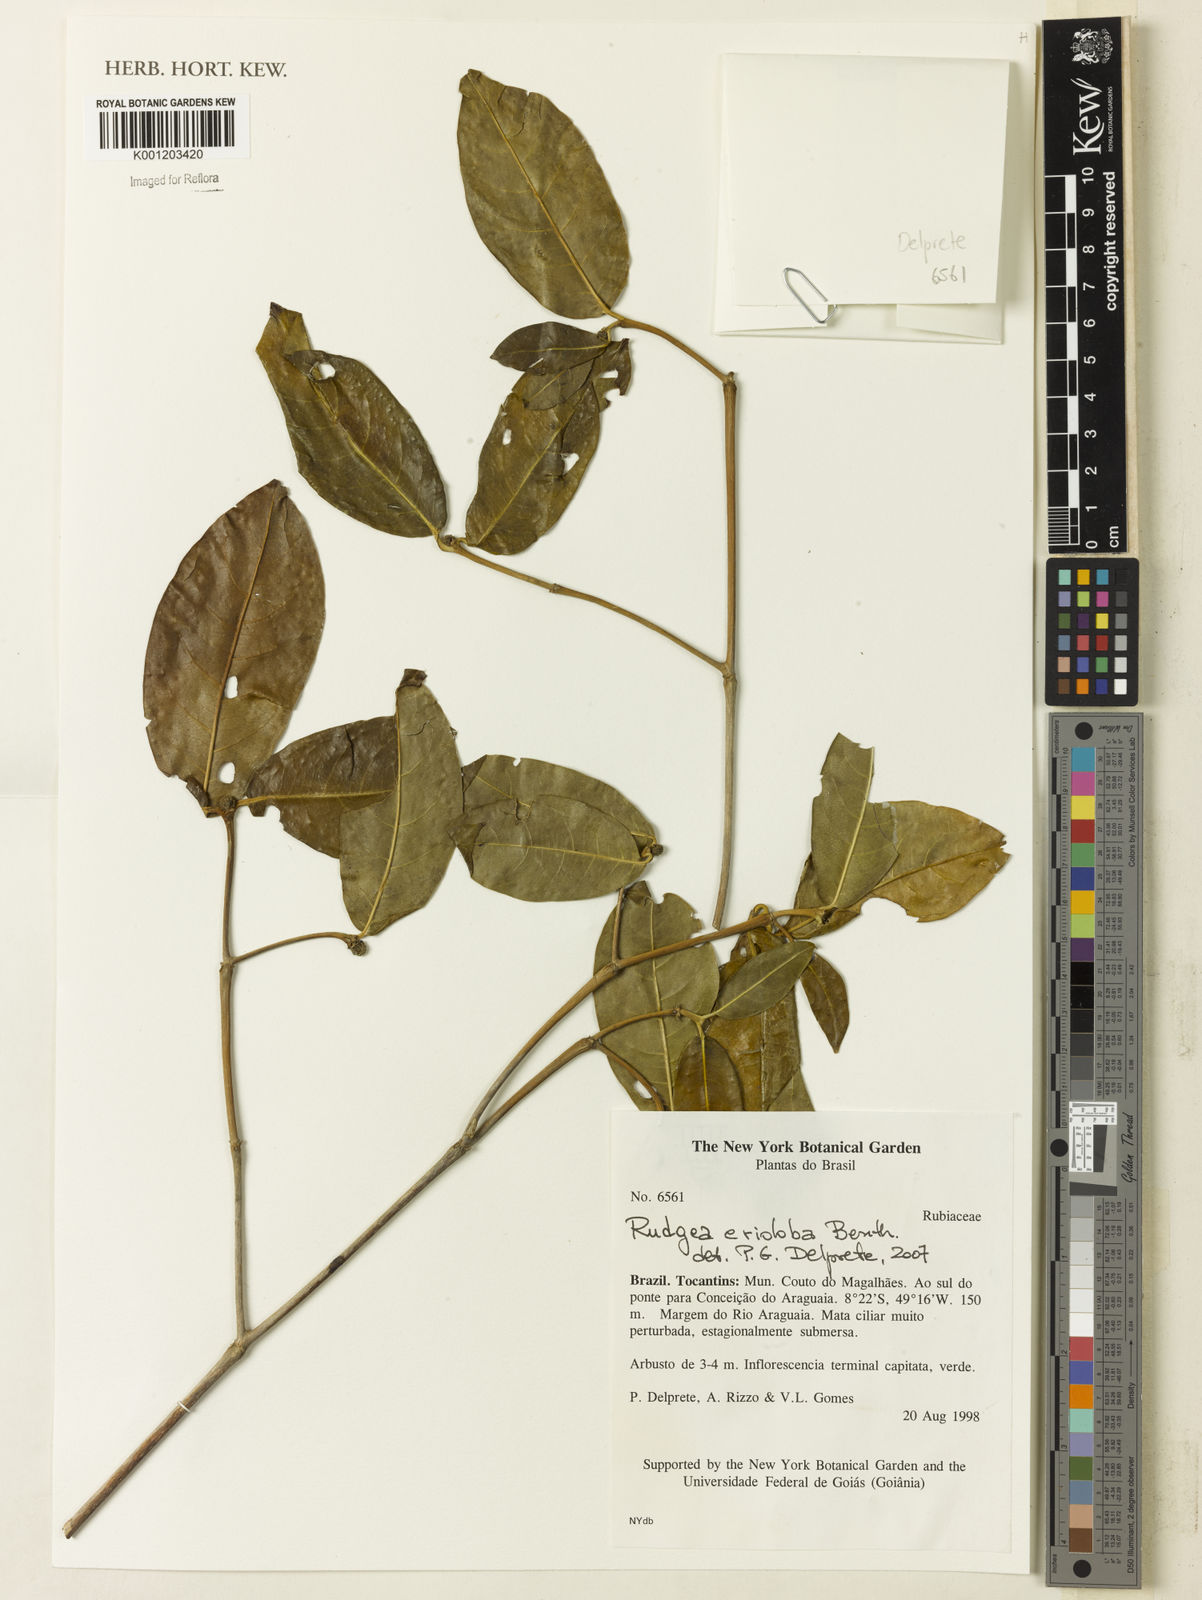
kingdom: Plantae
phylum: Tracheophyta
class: Magnoliopsida
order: Gentianales
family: Rubiaceae
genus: Rudgea
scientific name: Rudgea erioloba
